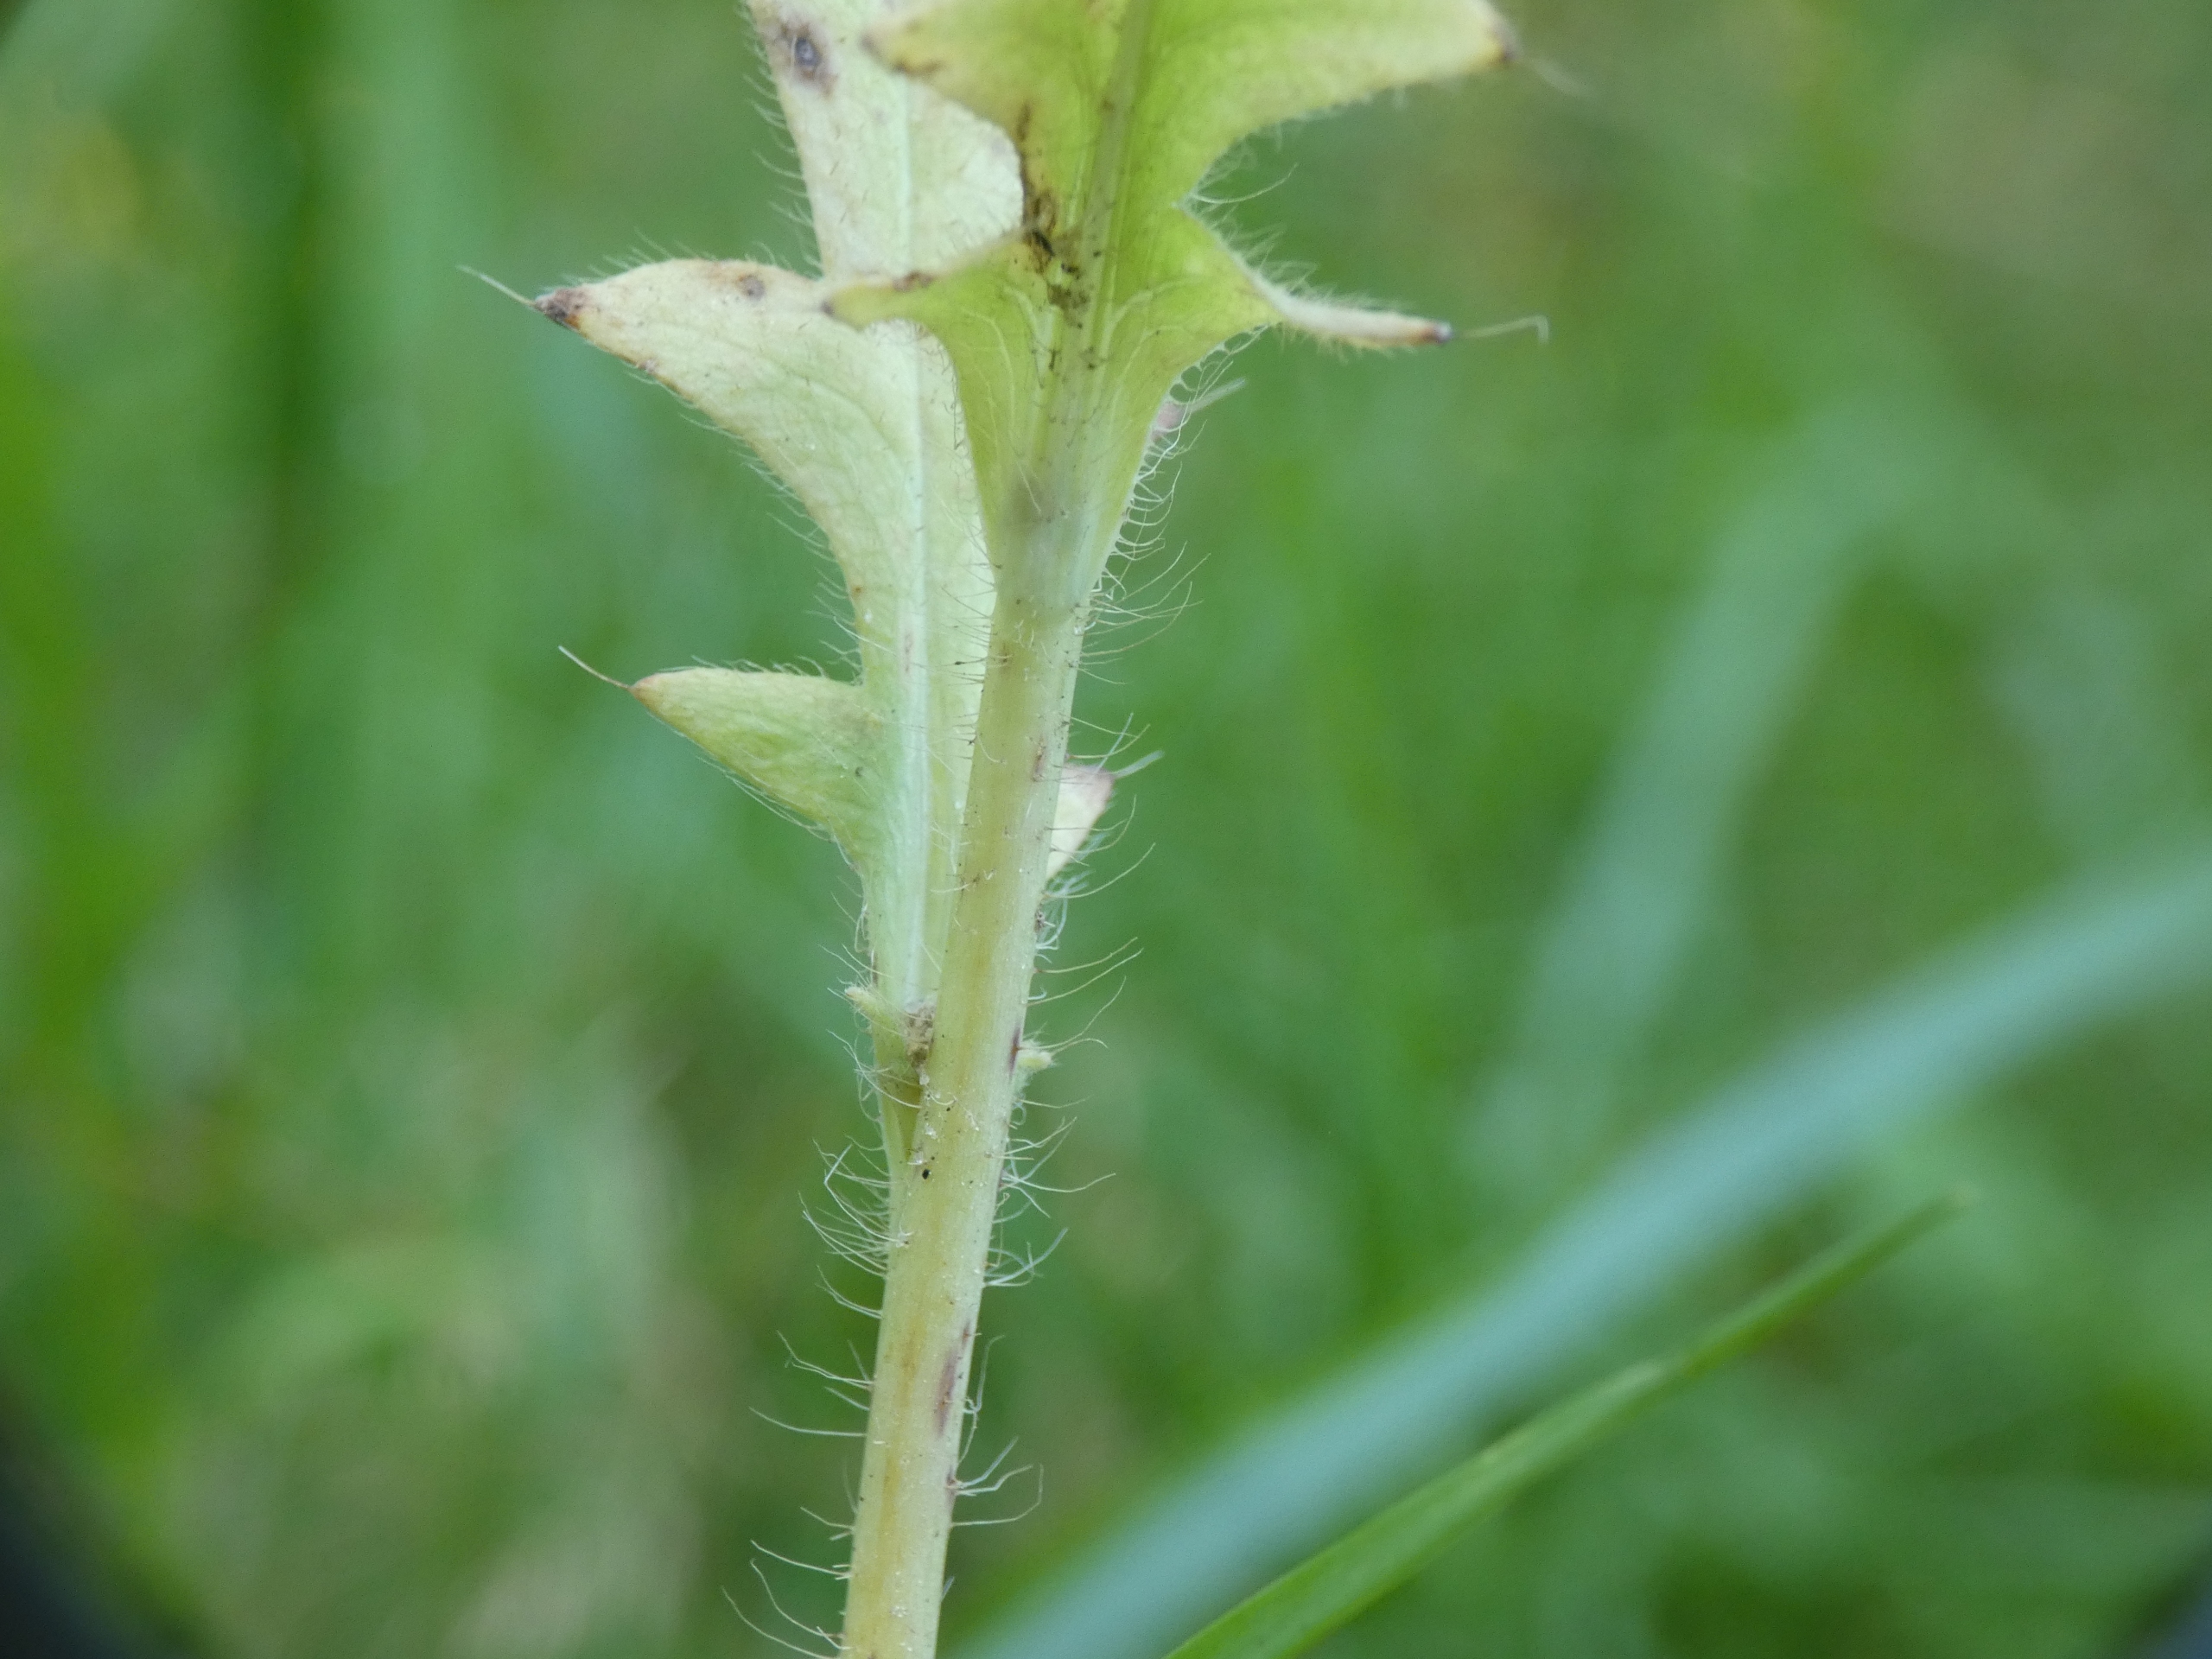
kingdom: Plantae
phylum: Tracheophyta
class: Magnoliopsida
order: Ranunculales
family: Papaveraceae
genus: Papaver
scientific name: Papaver rhoeas
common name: Korn-valmue
